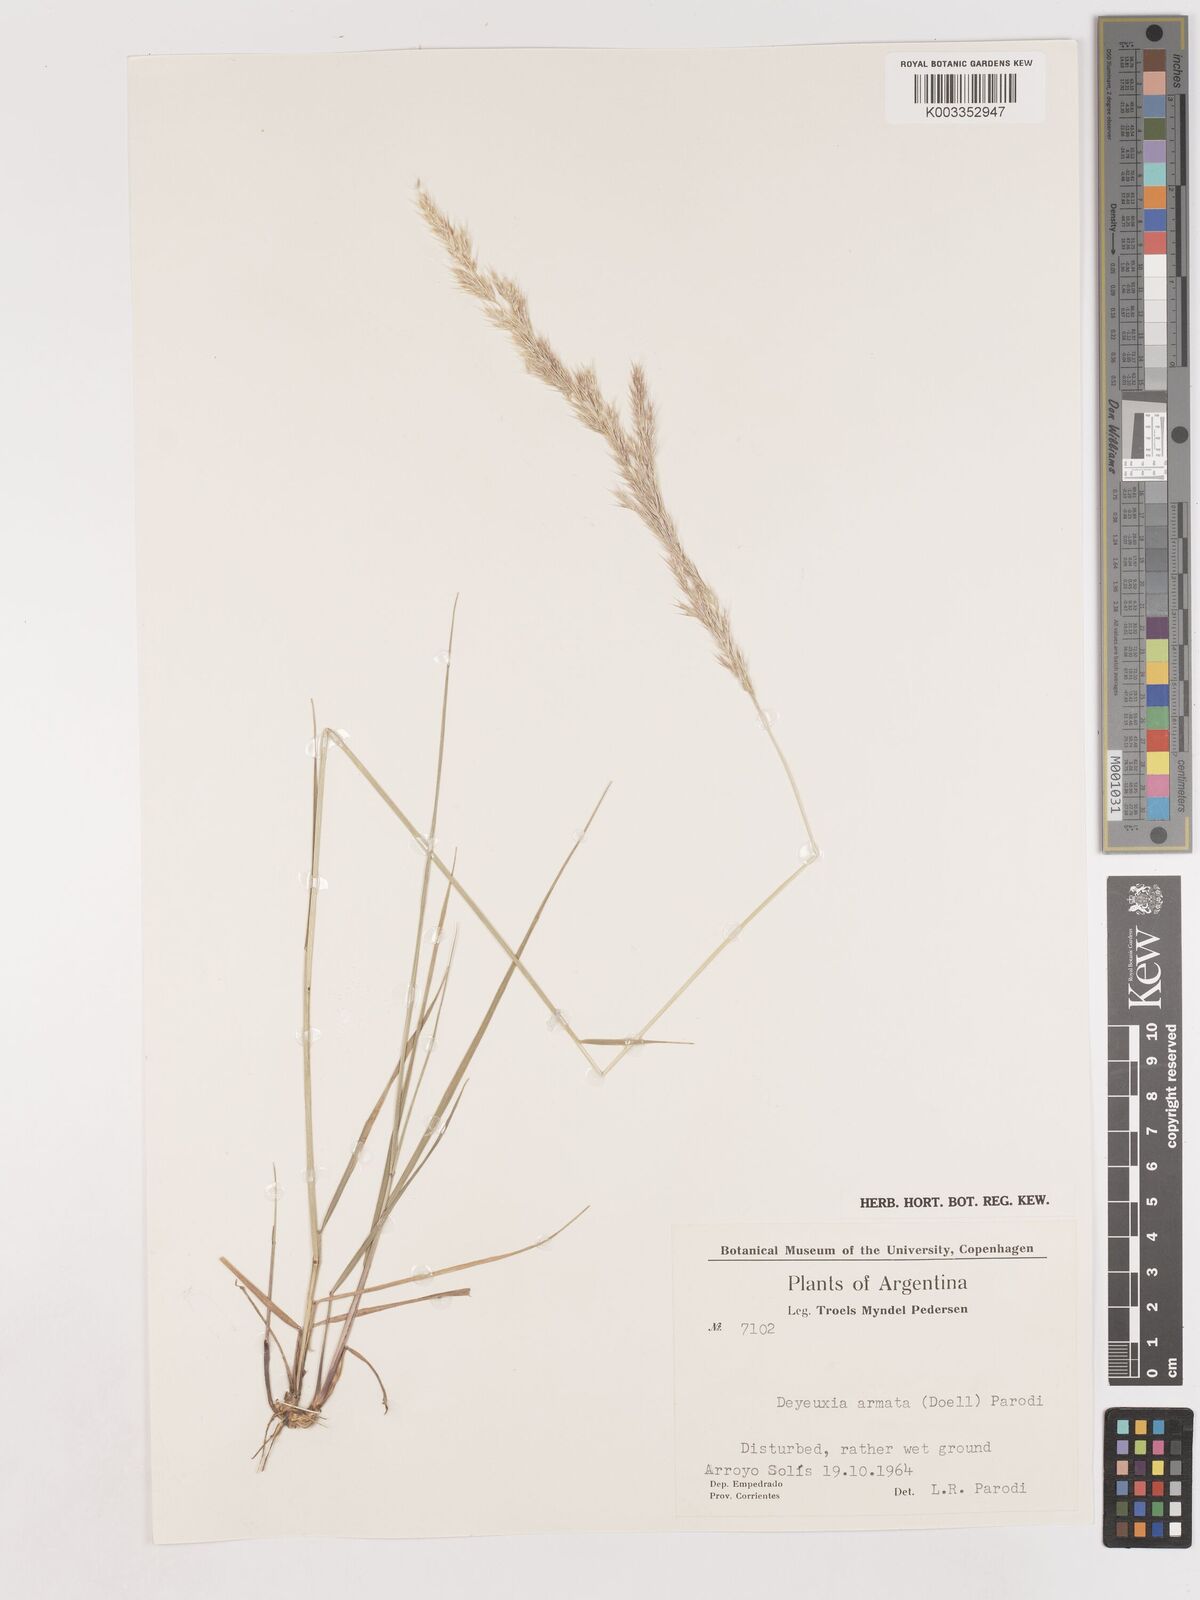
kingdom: Plantae
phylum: Tracheophyta
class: Liliopsida
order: Poales
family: Poaceae
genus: Cinnagrostis
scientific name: Cinnagrostis viridiflavescens
